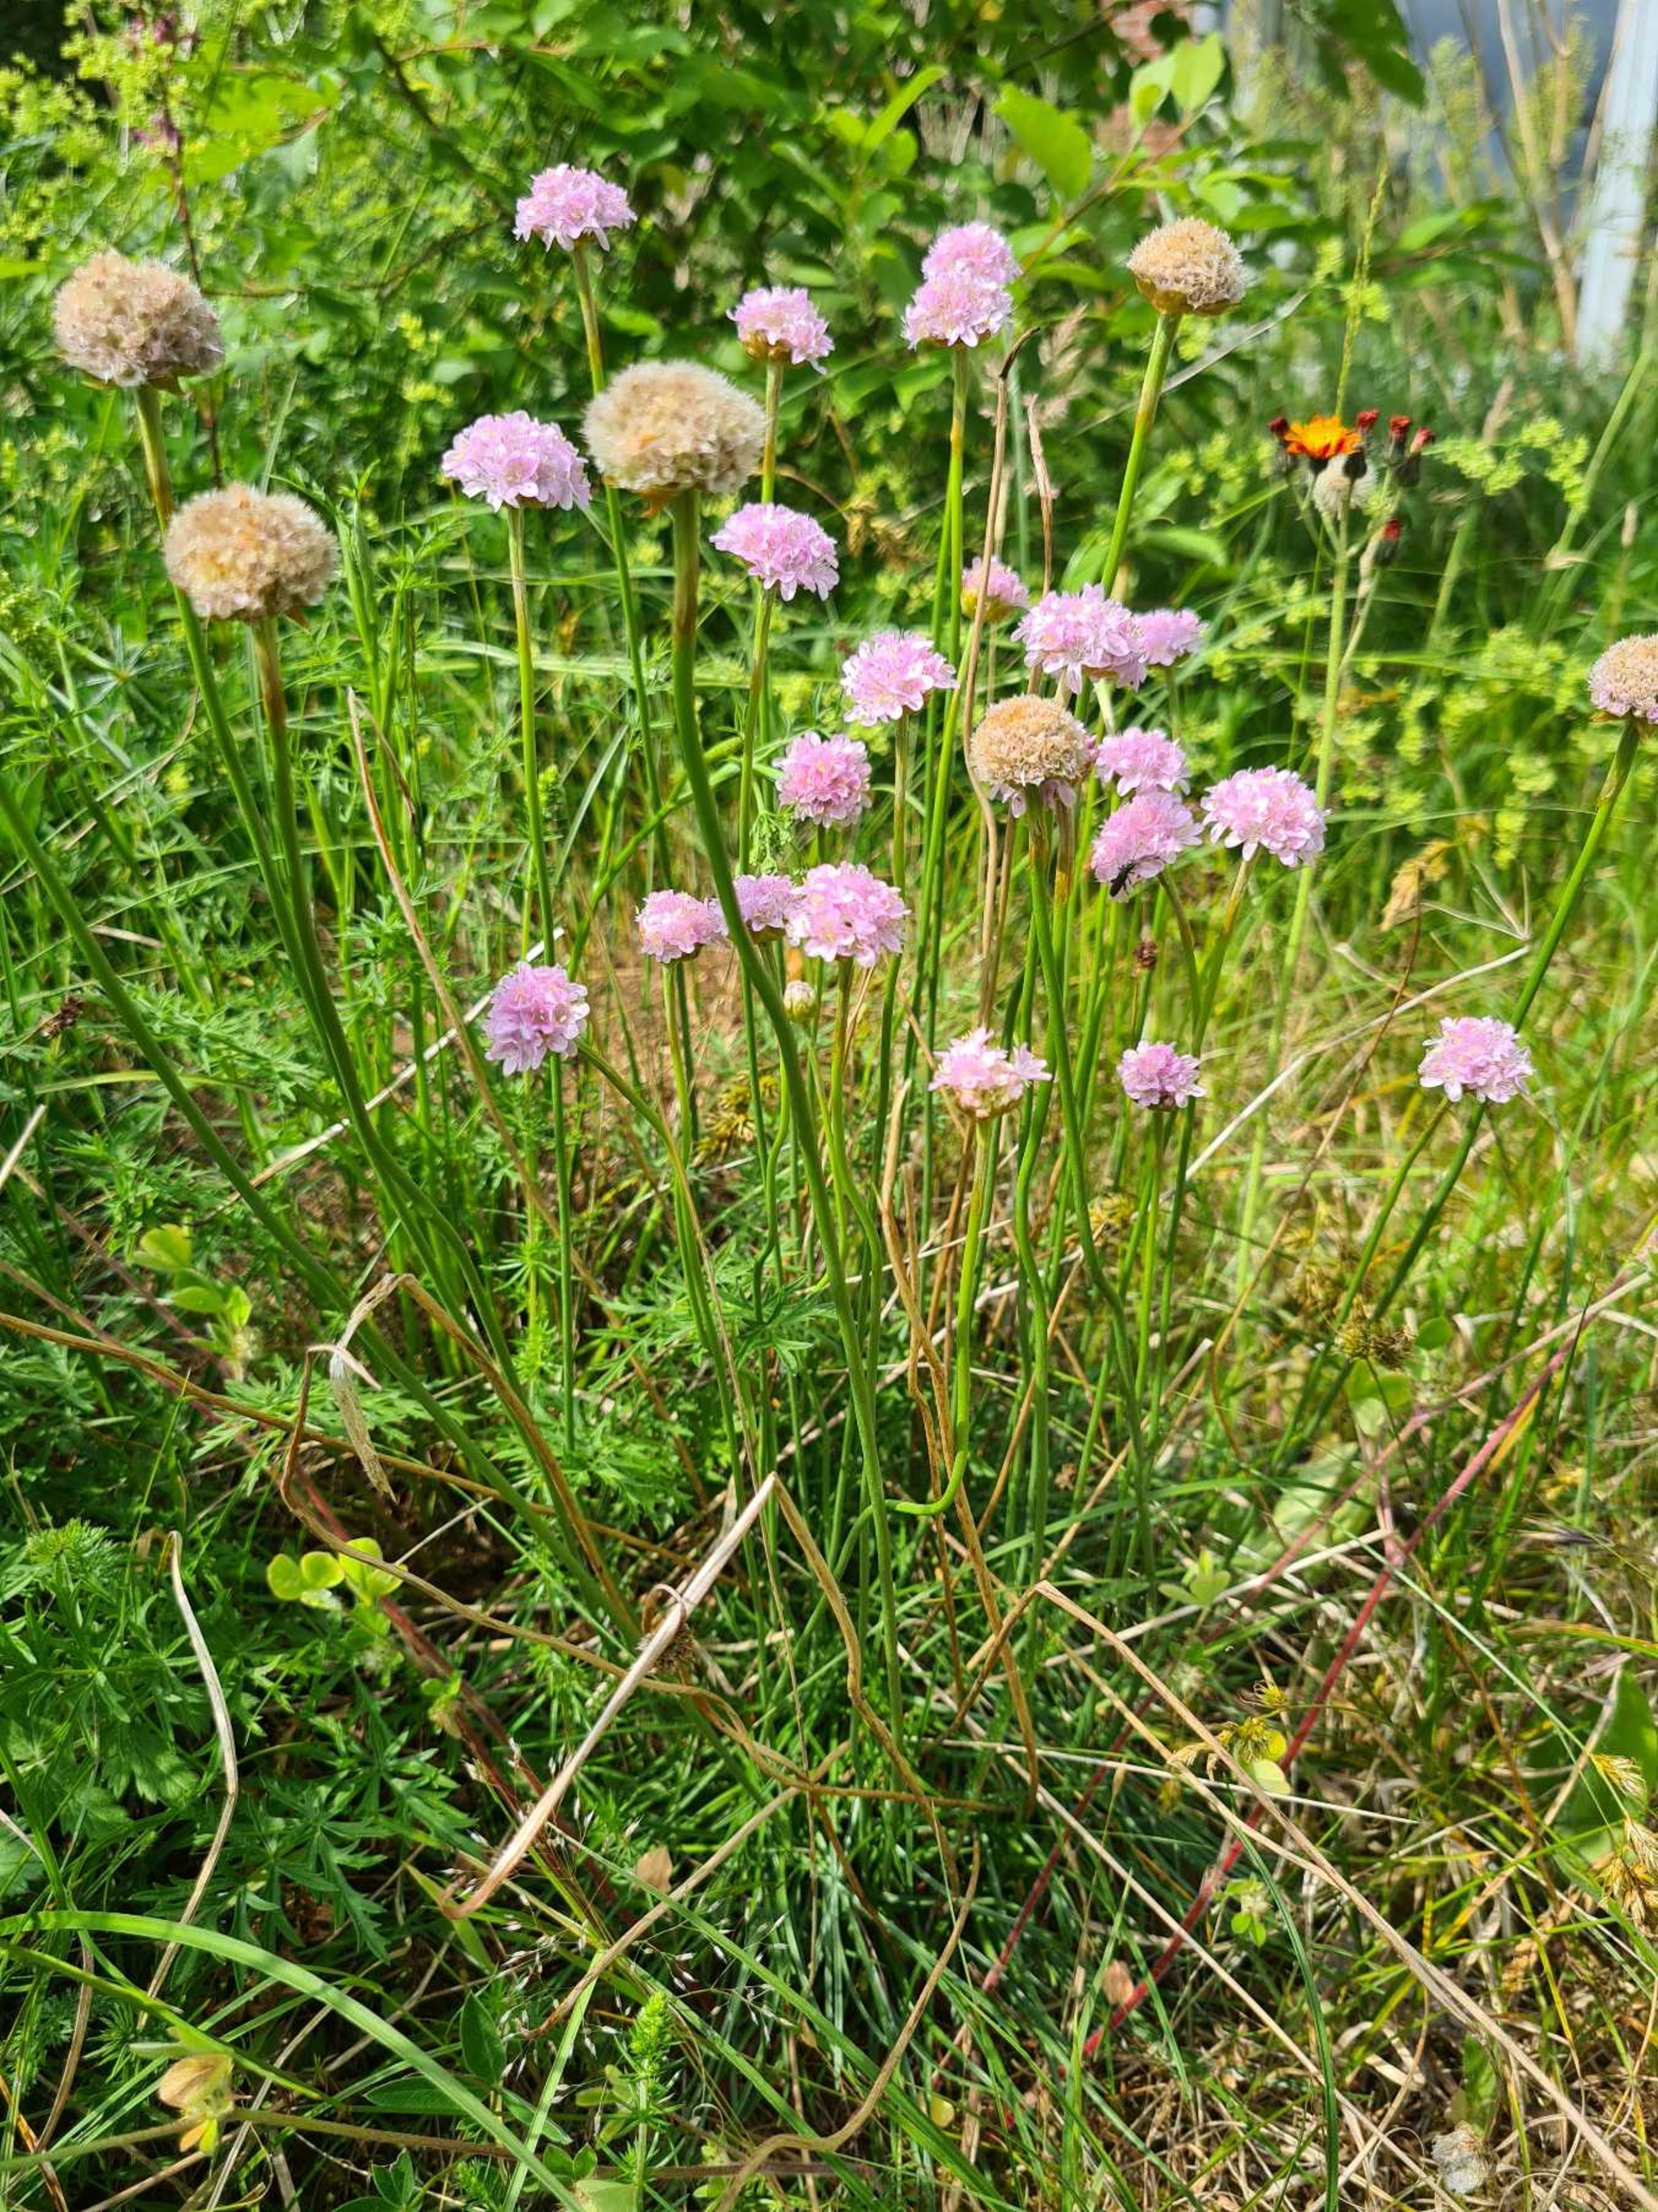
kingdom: Plantae
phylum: Tracheophyta
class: Magnoliopsida
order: Caryophyllales
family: Plumbaginaceae
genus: Armeria
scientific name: Armeria maritima
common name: Engelskgræs
